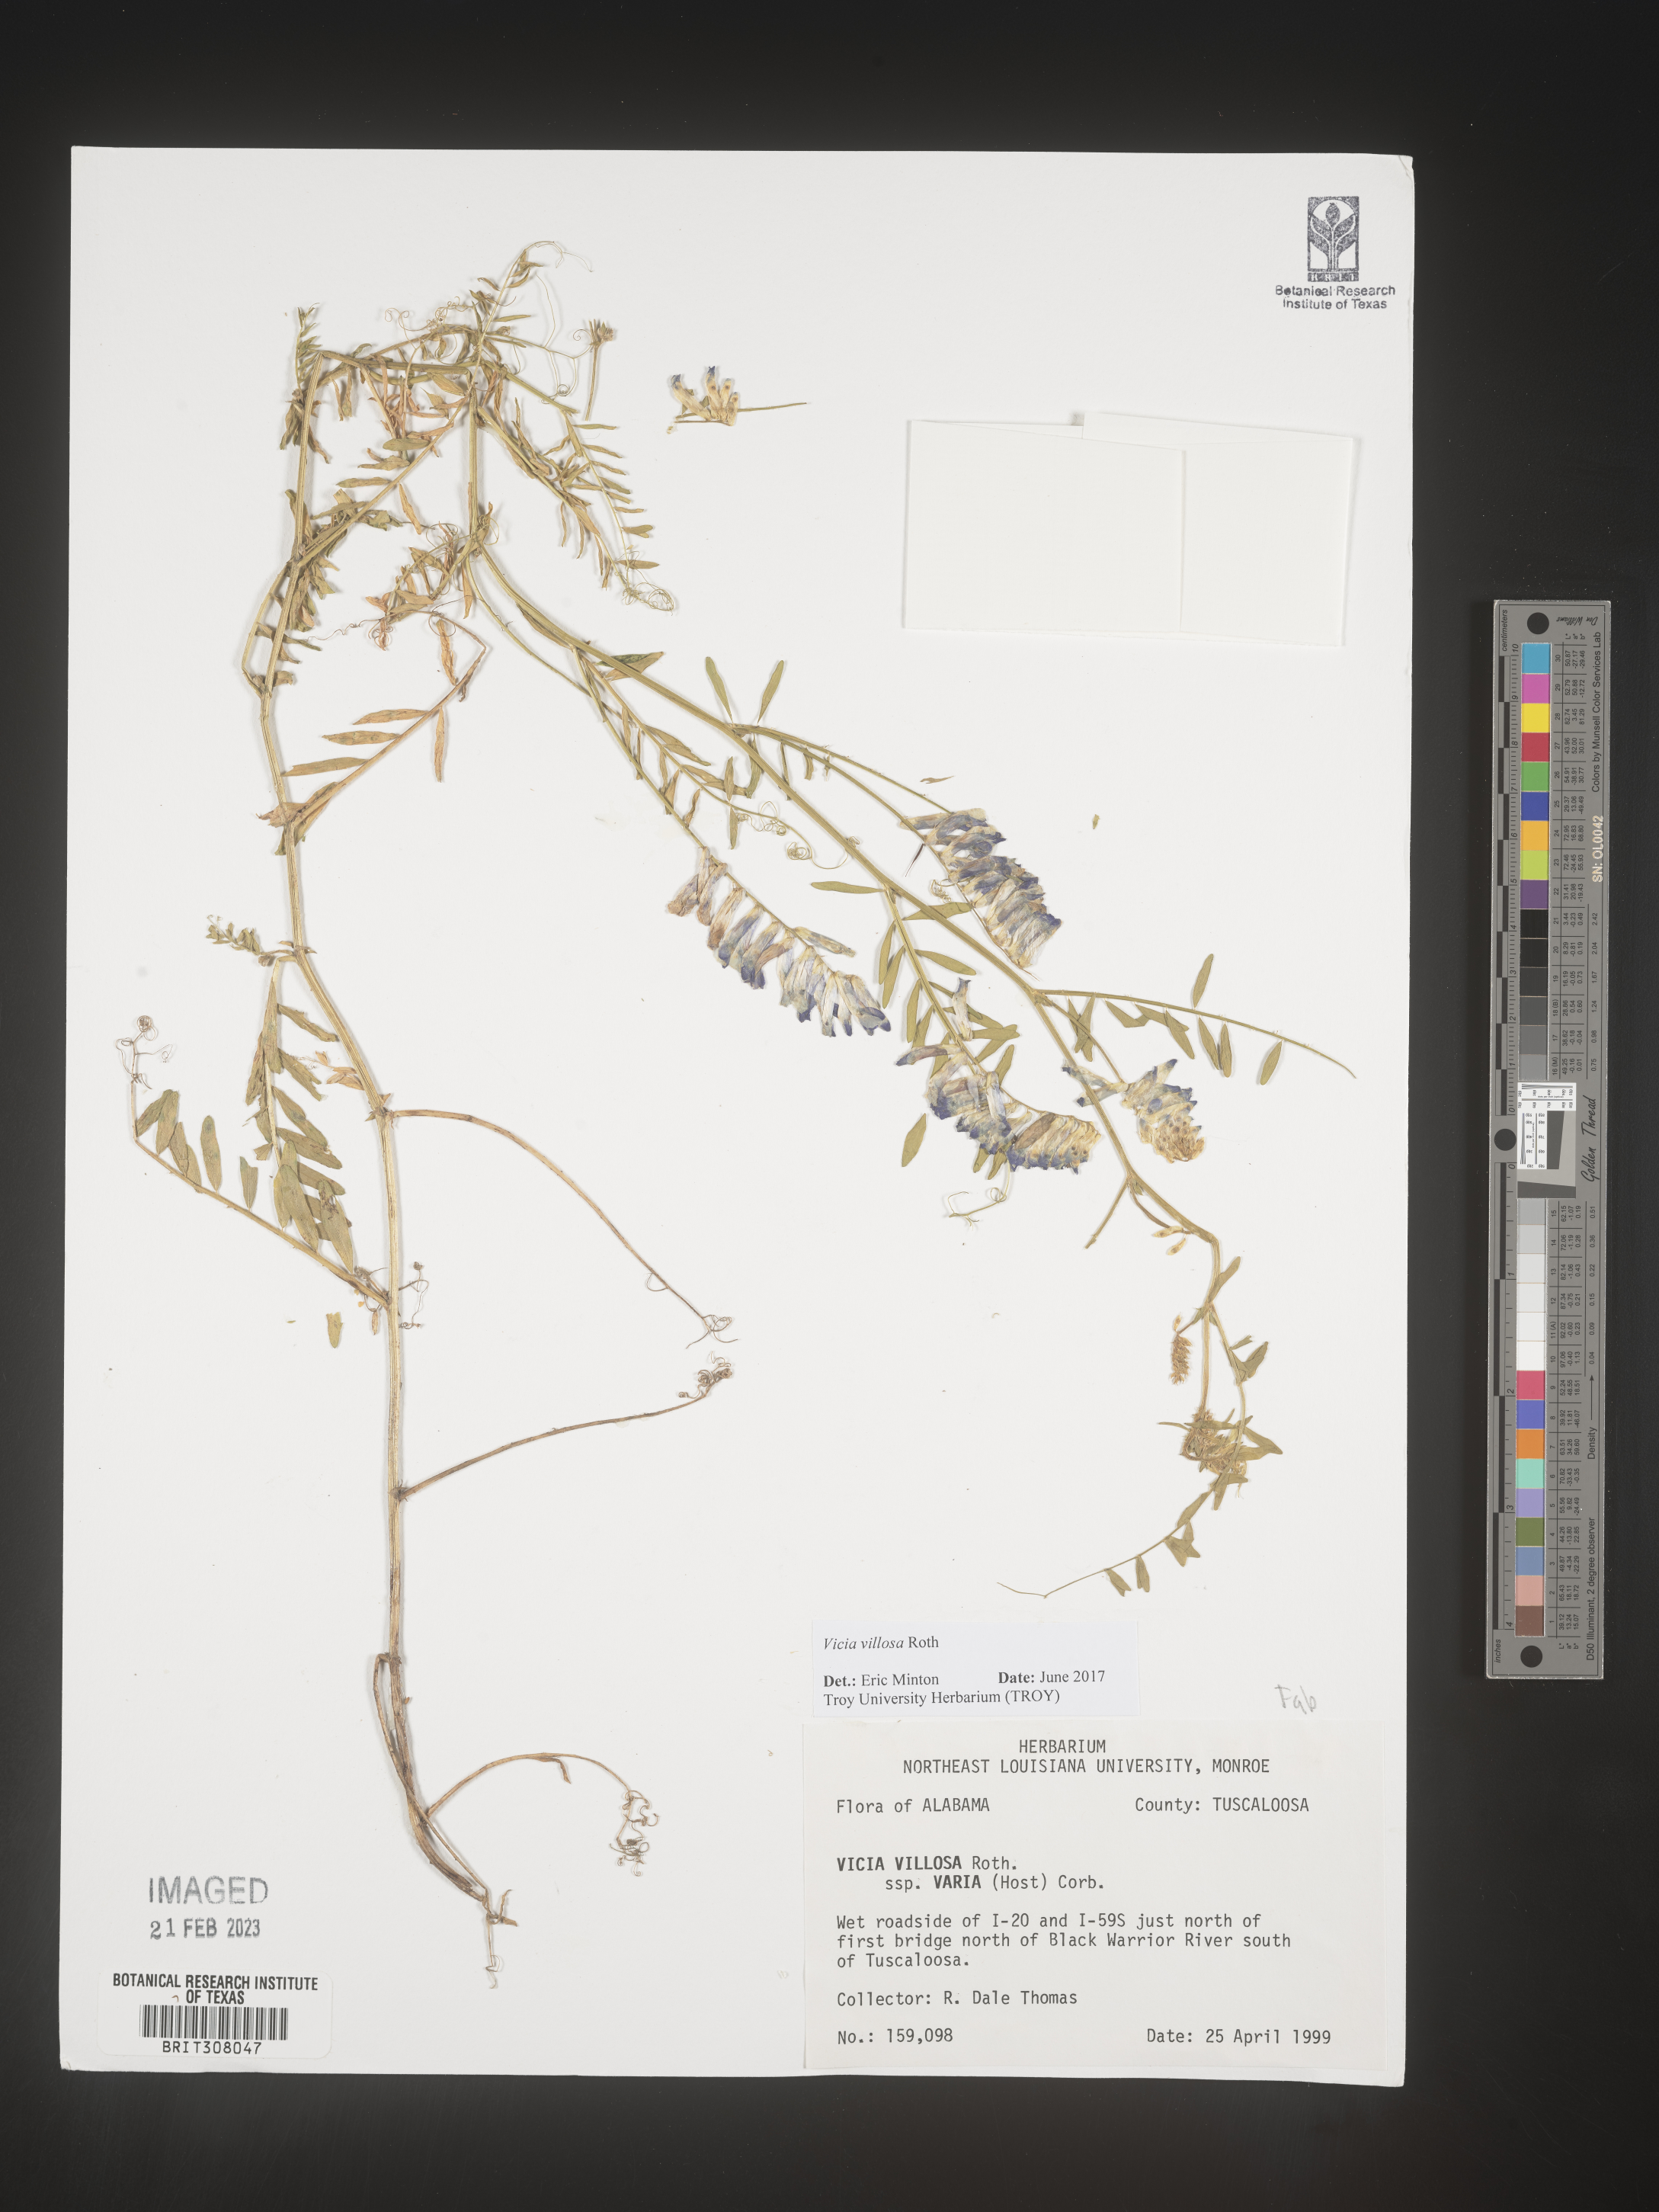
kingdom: Plantae
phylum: Tracheophyta
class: Magnoliopsida
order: Fabales
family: Fabaceae
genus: Vicia
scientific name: Vicia villosa
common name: Fodder vetch
